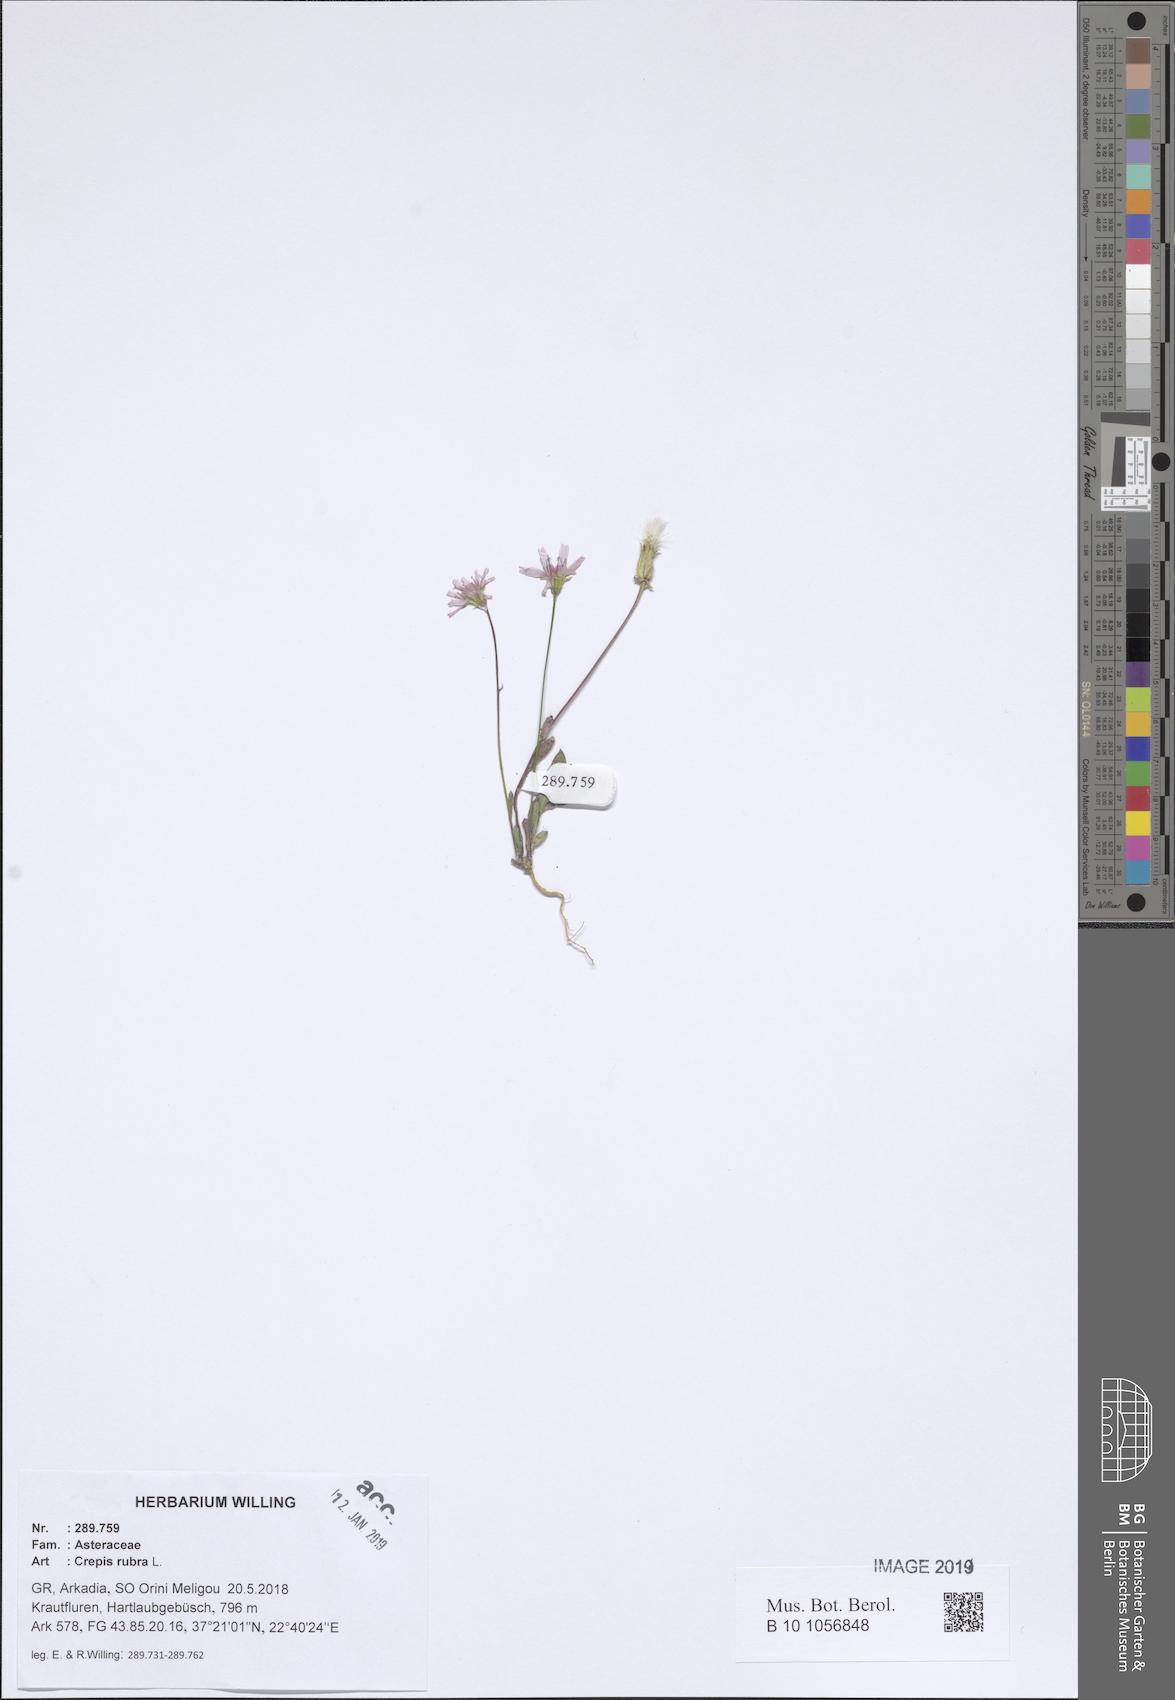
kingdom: Plantae
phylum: Tracheophyta
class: Magnoliopsida
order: Asterales
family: Asteraceae
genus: Crepis
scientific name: Crepis rubra
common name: Pink hawk's-beard
